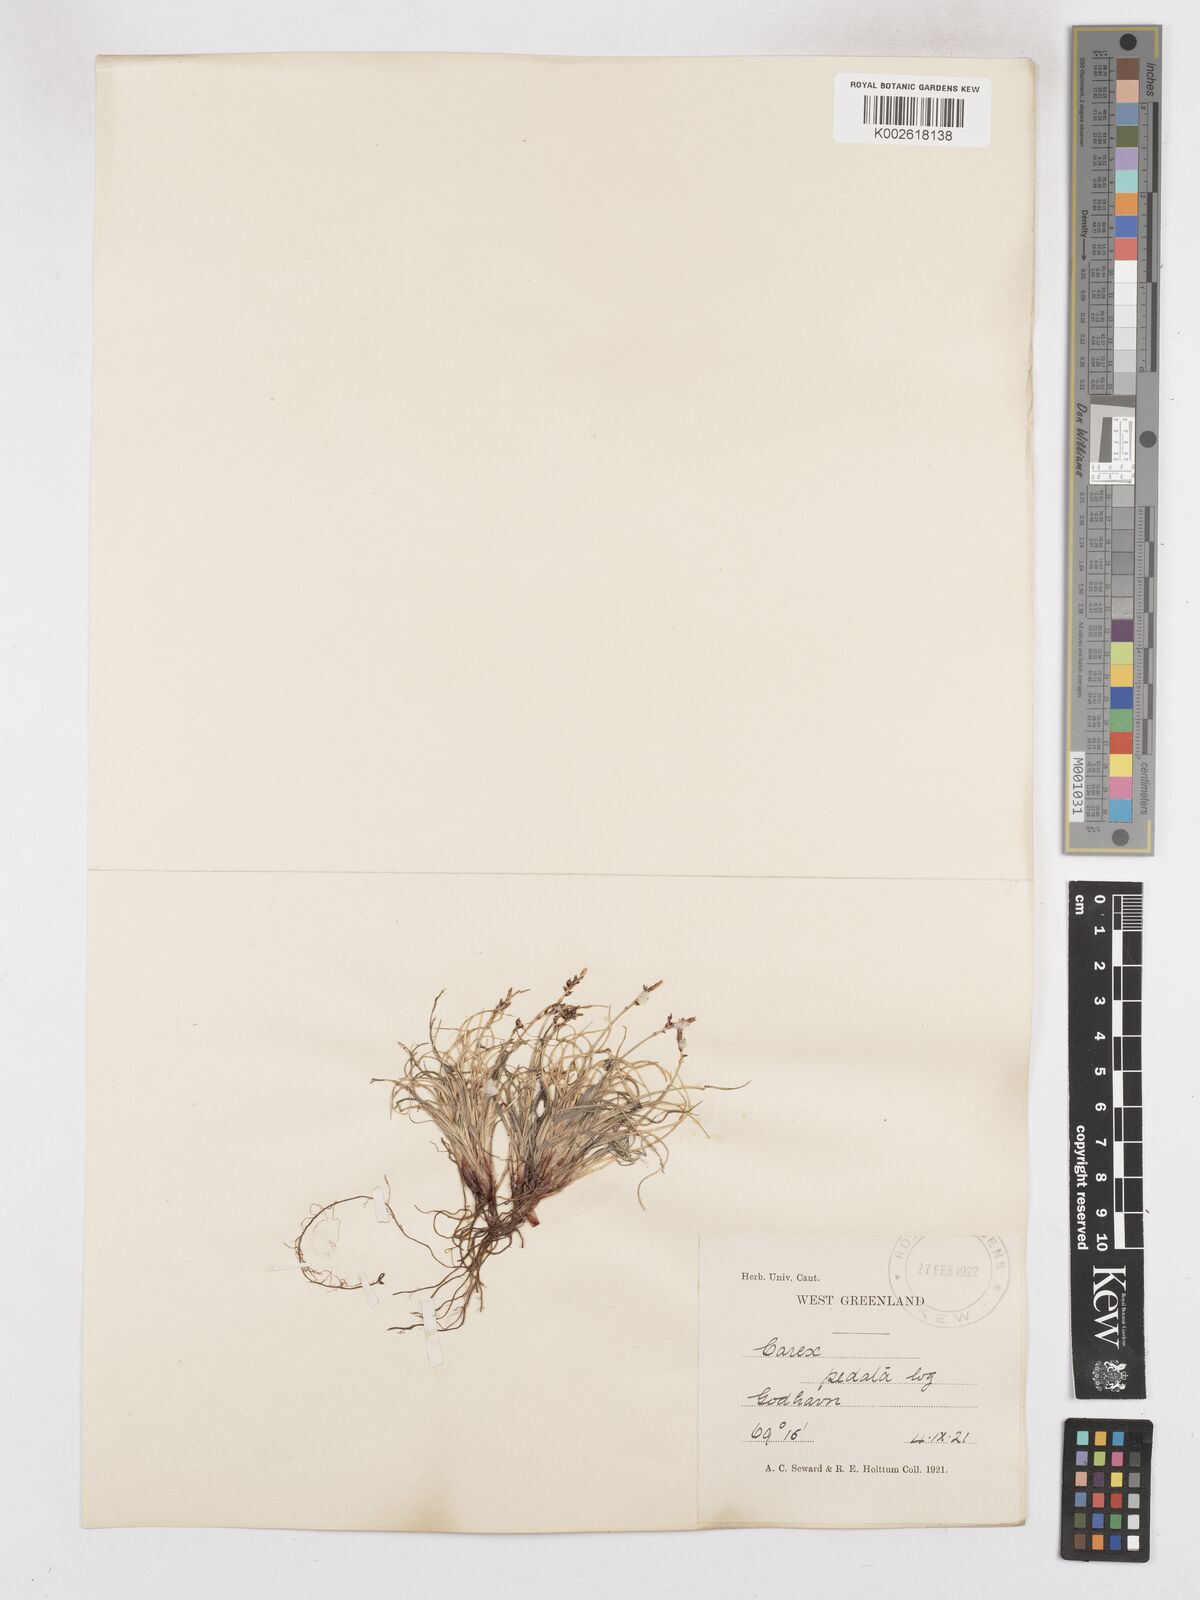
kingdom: Plantae
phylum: Tracheophyta
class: Liliopsida
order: Poales
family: Cyperaceae
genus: Carex
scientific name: Carex glacialis
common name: Newfoundland sedge
